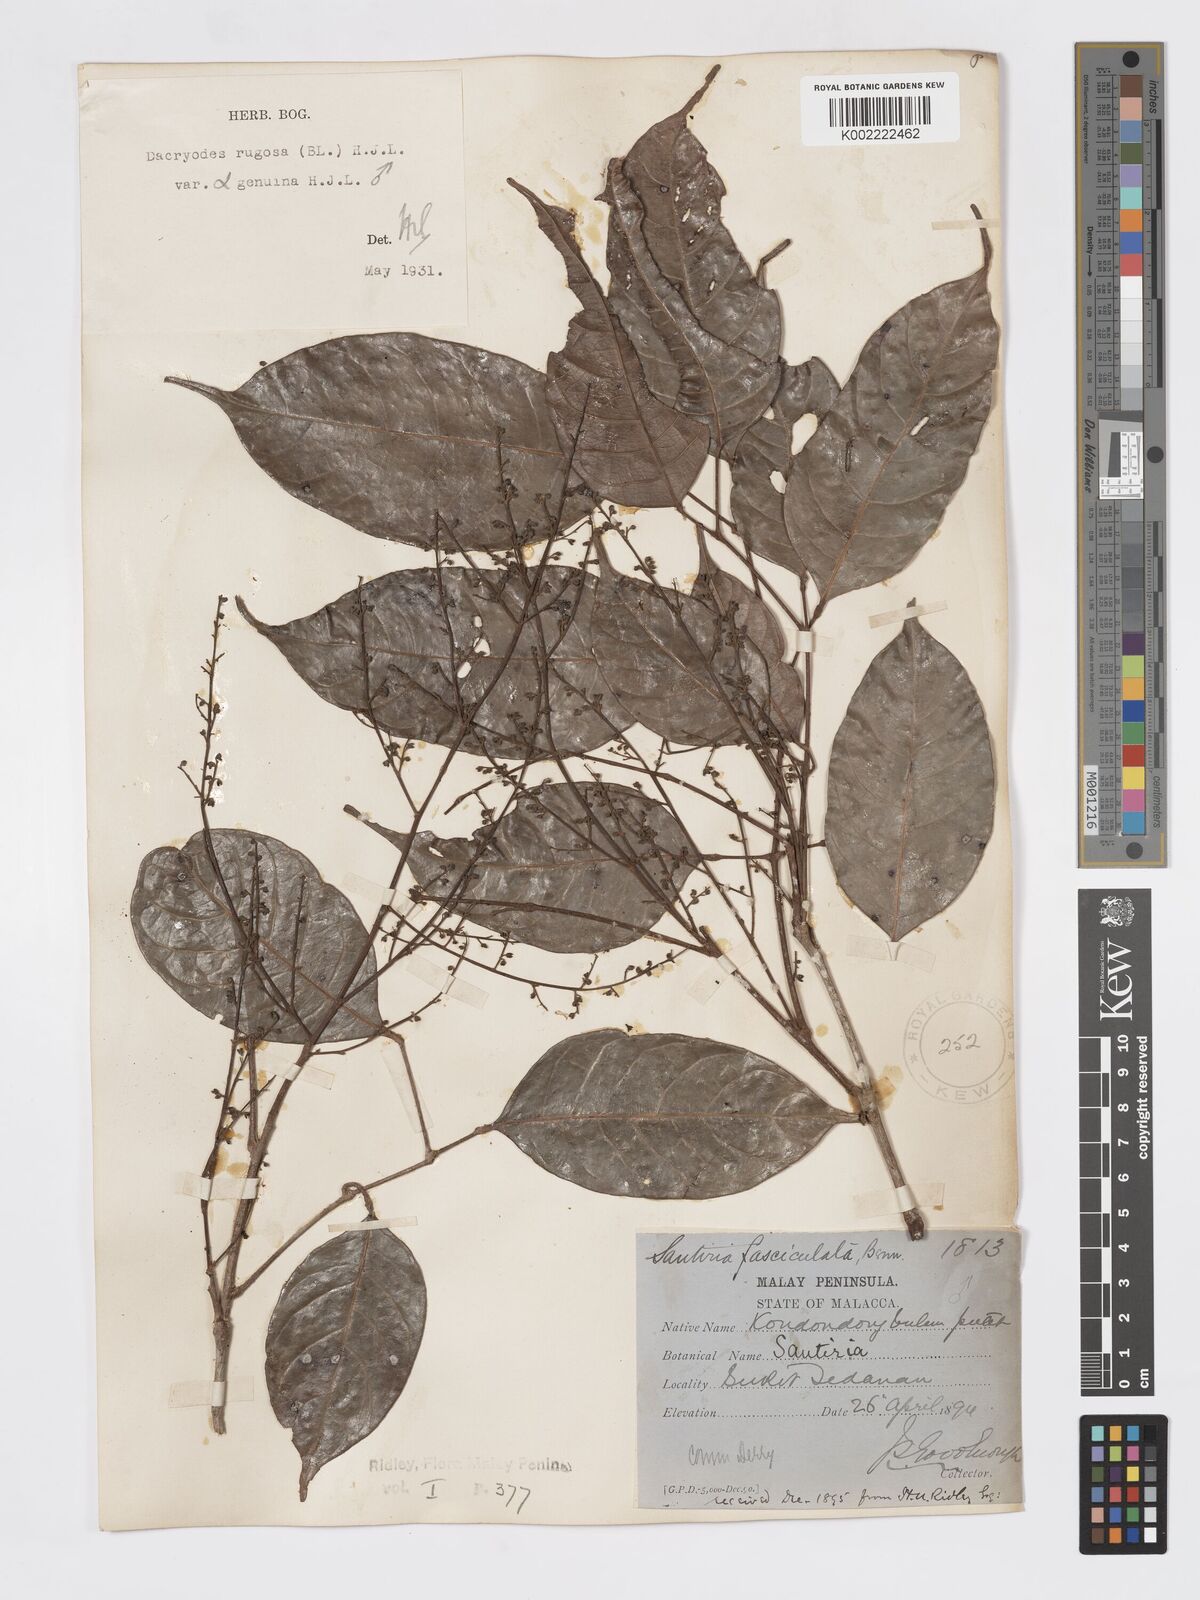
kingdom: Plantae
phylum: Tracheophyta
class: Magnoliopsida
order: Sapindales
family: Burseraceae
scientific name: Burseraceae
